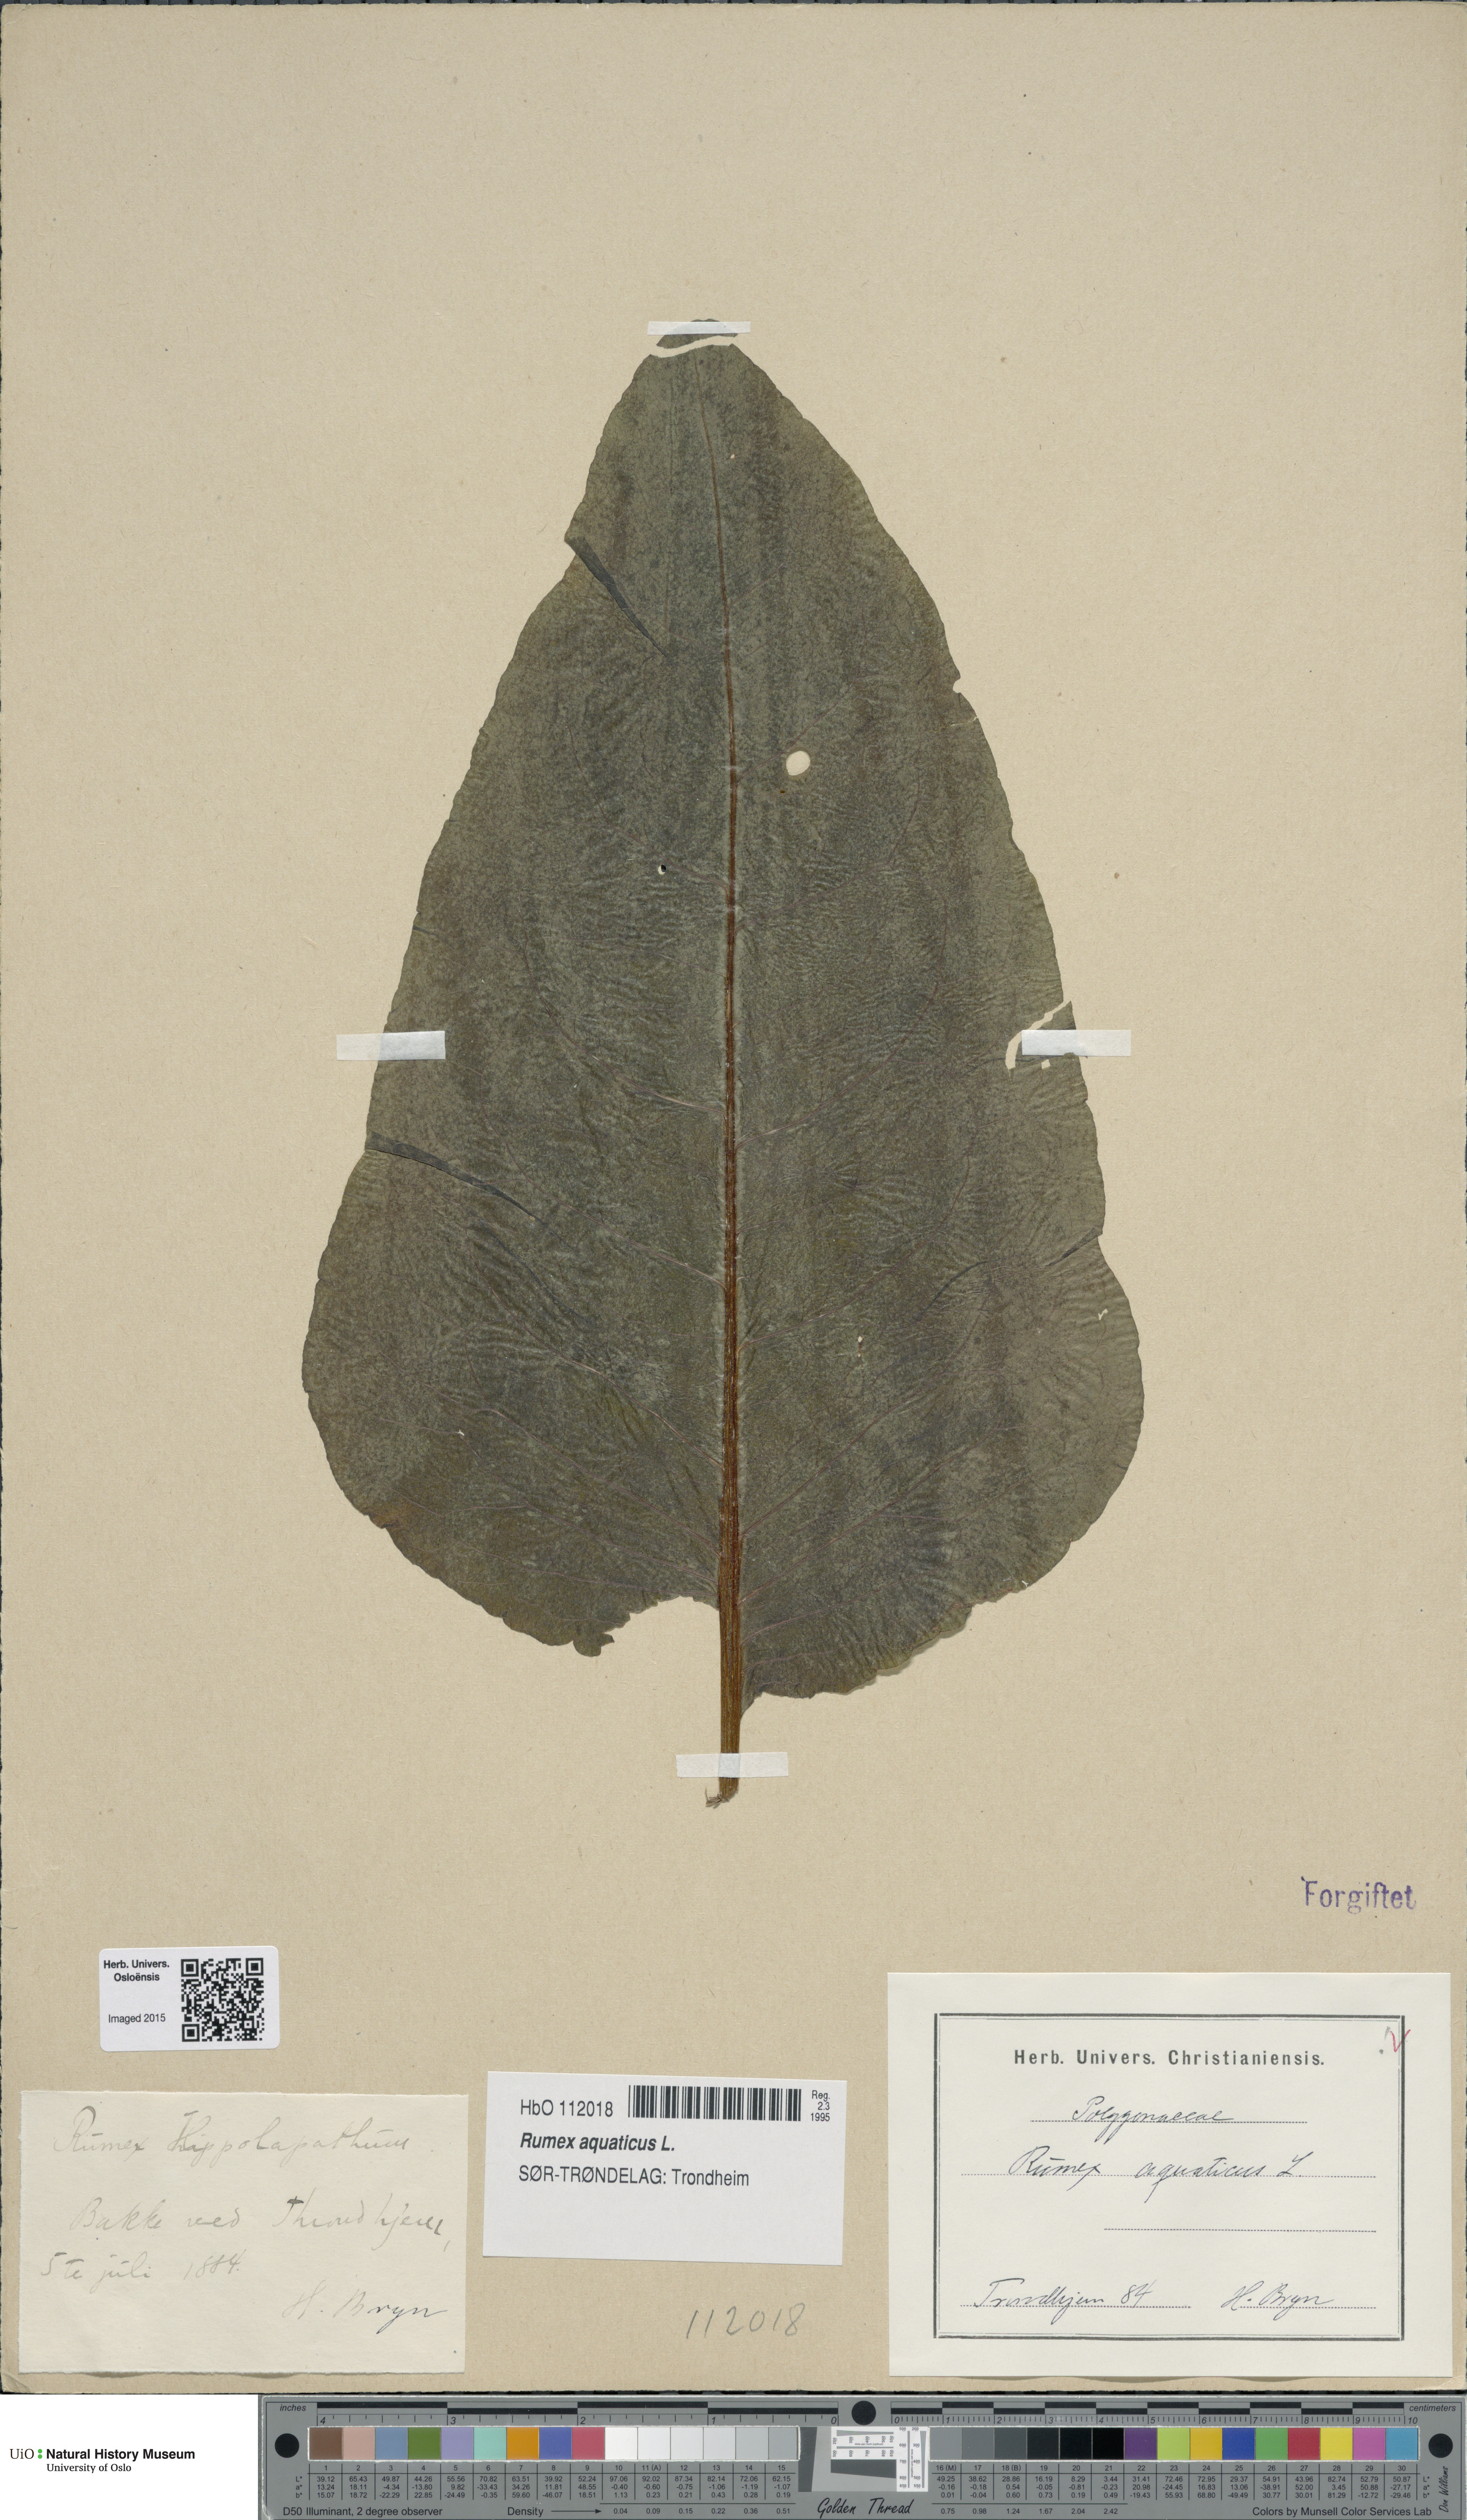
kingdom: Plantae
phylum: Tracheophyta
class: Magnoliopsida
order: Caryophyllales
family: Polygonaceae
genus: Rumex
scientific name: Rumex aquaticus
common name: Scottish dock
